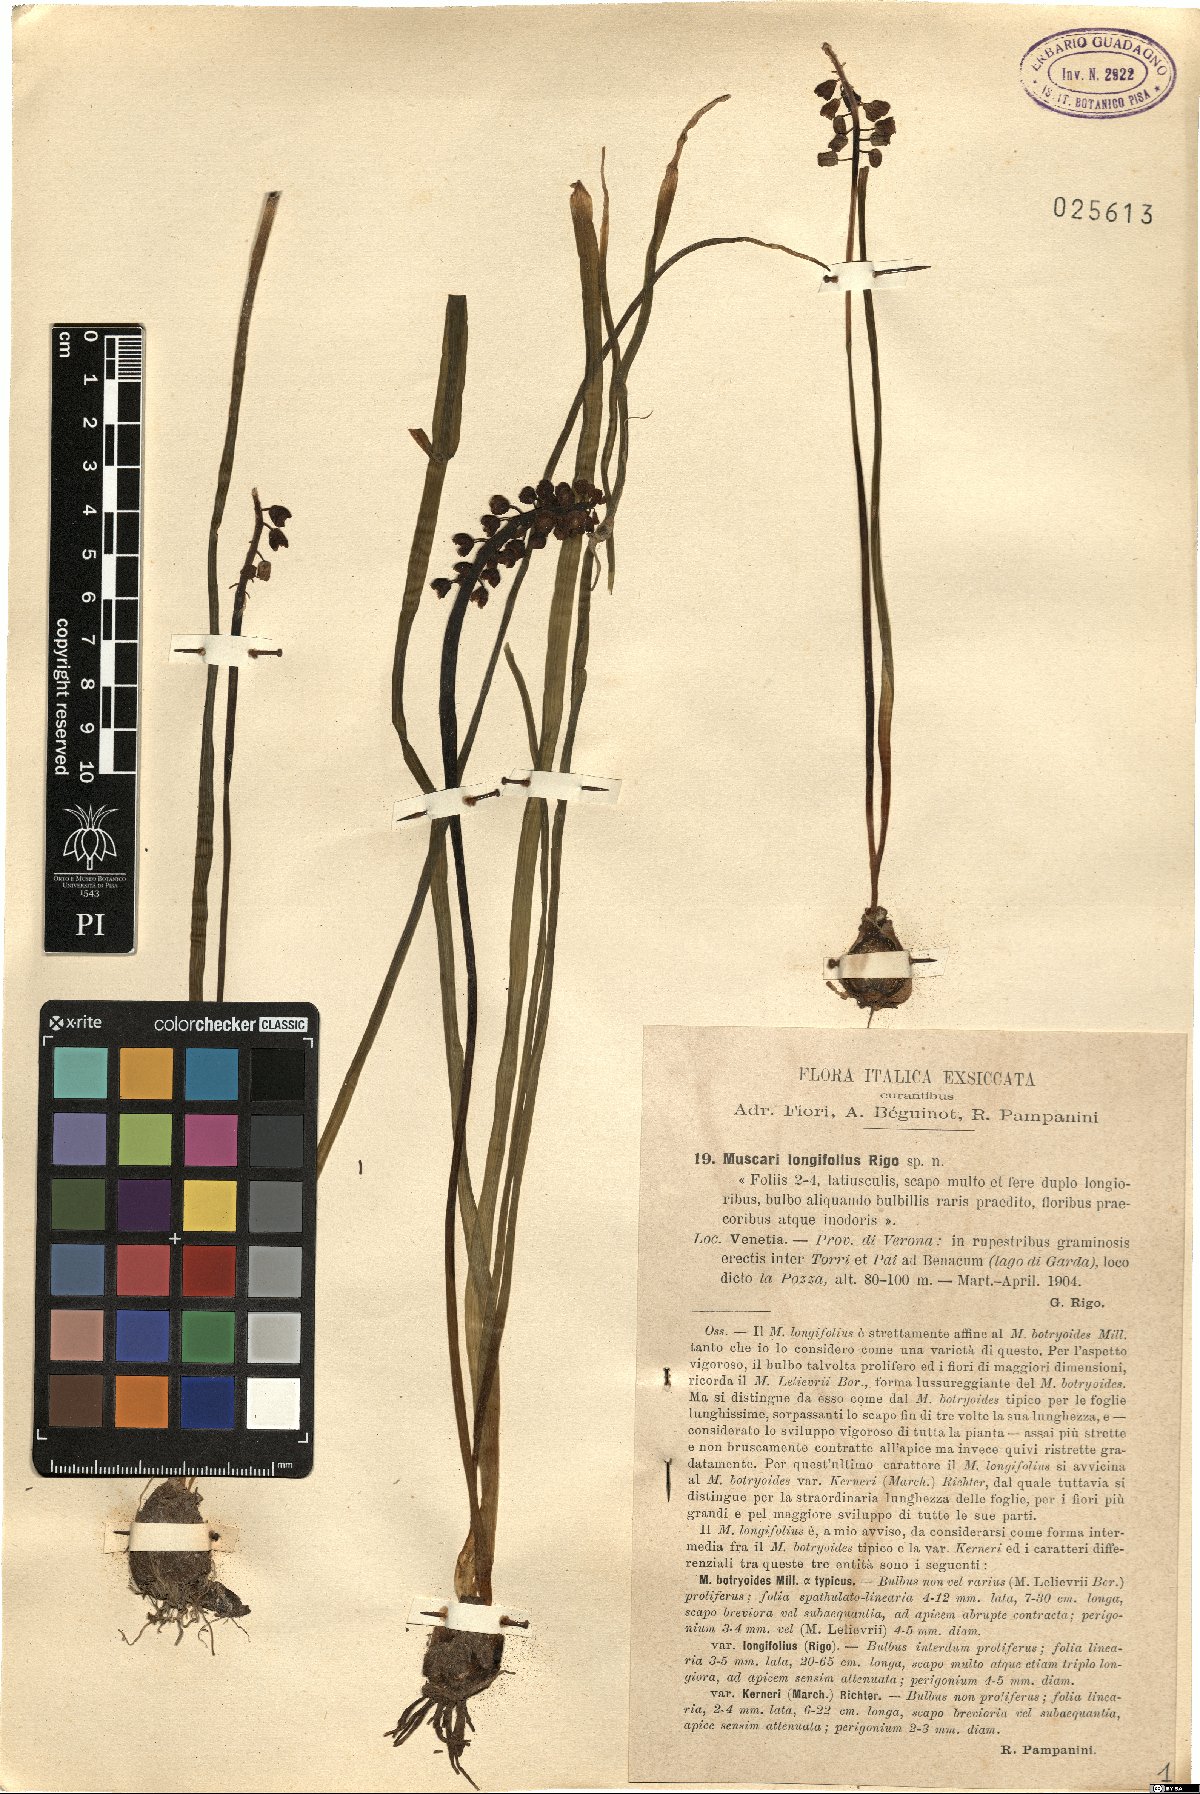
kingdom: Plantae
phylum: Tracheophyta
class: Liliopsida
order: Asparagales
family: Asparagaceae
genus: Muscari
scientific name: Muscari botryoides
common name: Compact grape-hyacinth
